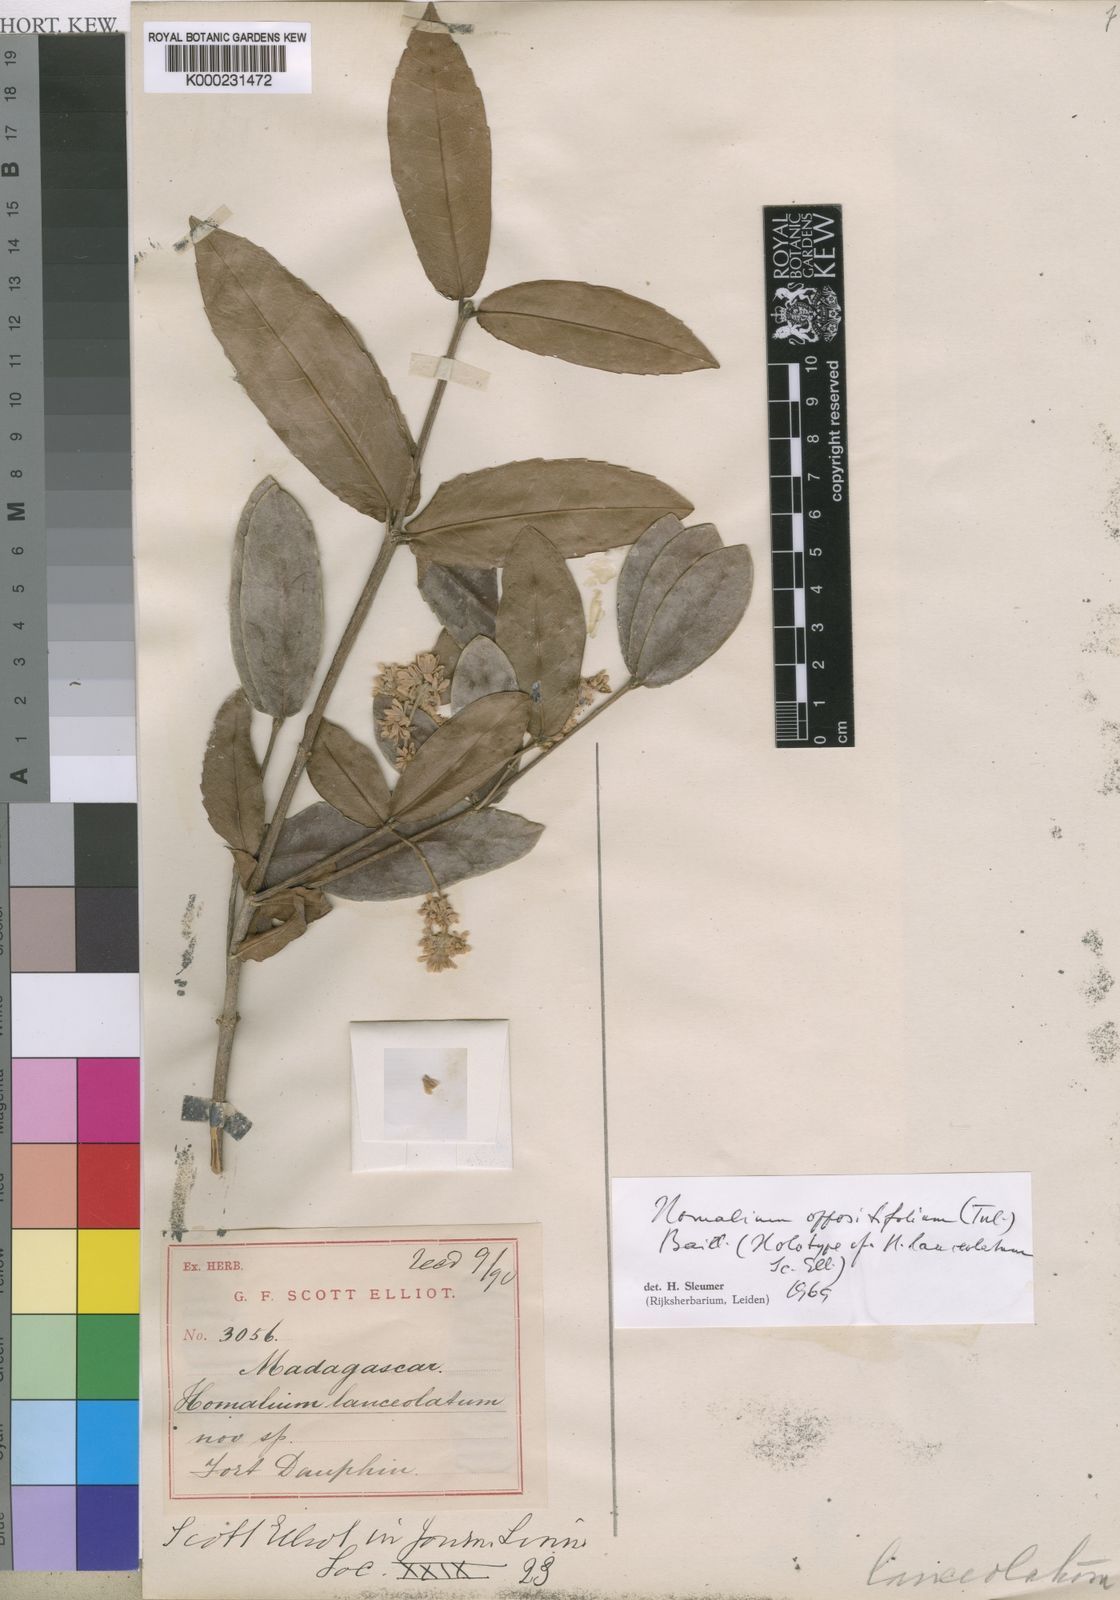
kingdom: Plantae
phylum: Tracheophyta
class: Magnoliopsida
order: Malpighiales
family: Salicaceae
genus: Homalium
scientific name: Homalium oppositifolium
